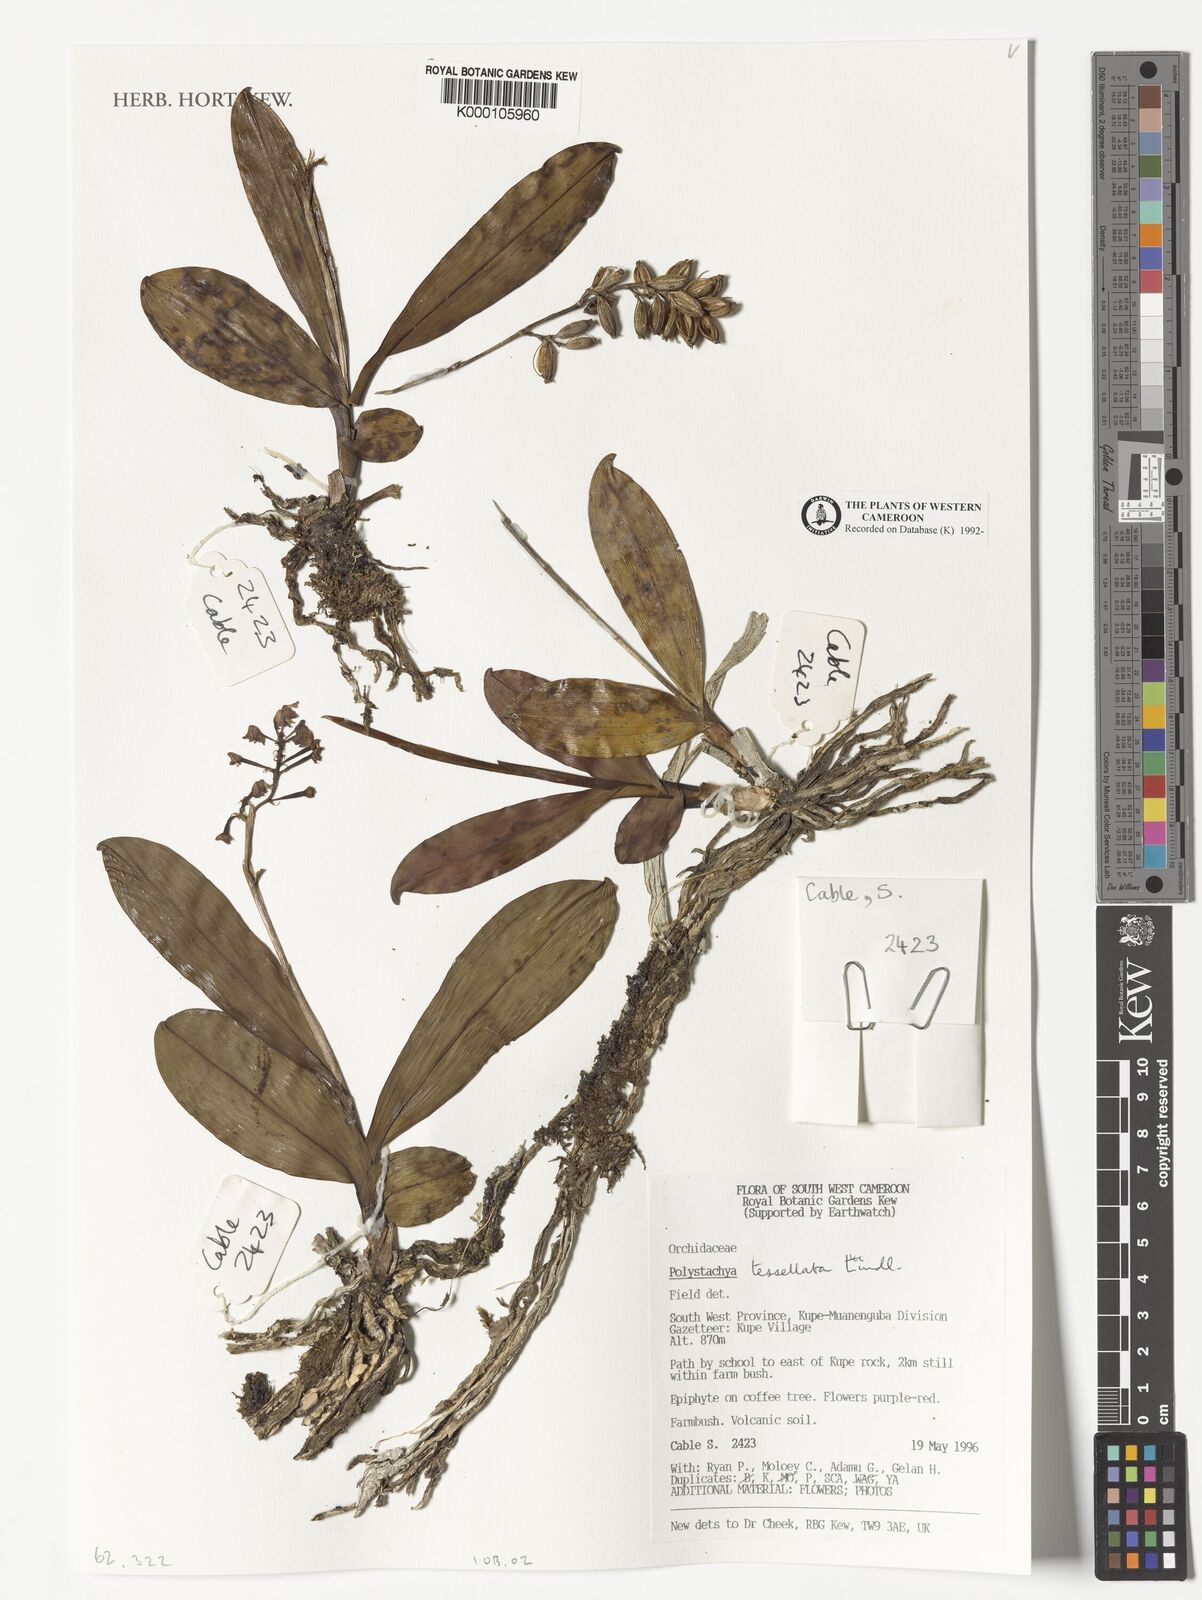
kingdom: Plantae
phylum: Tracheophyta
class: Liliopsida
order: Asparagales
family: Orchidaceae
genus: Polystachya
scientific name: Polystachya concreta
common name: Greater yellowspike orchid
